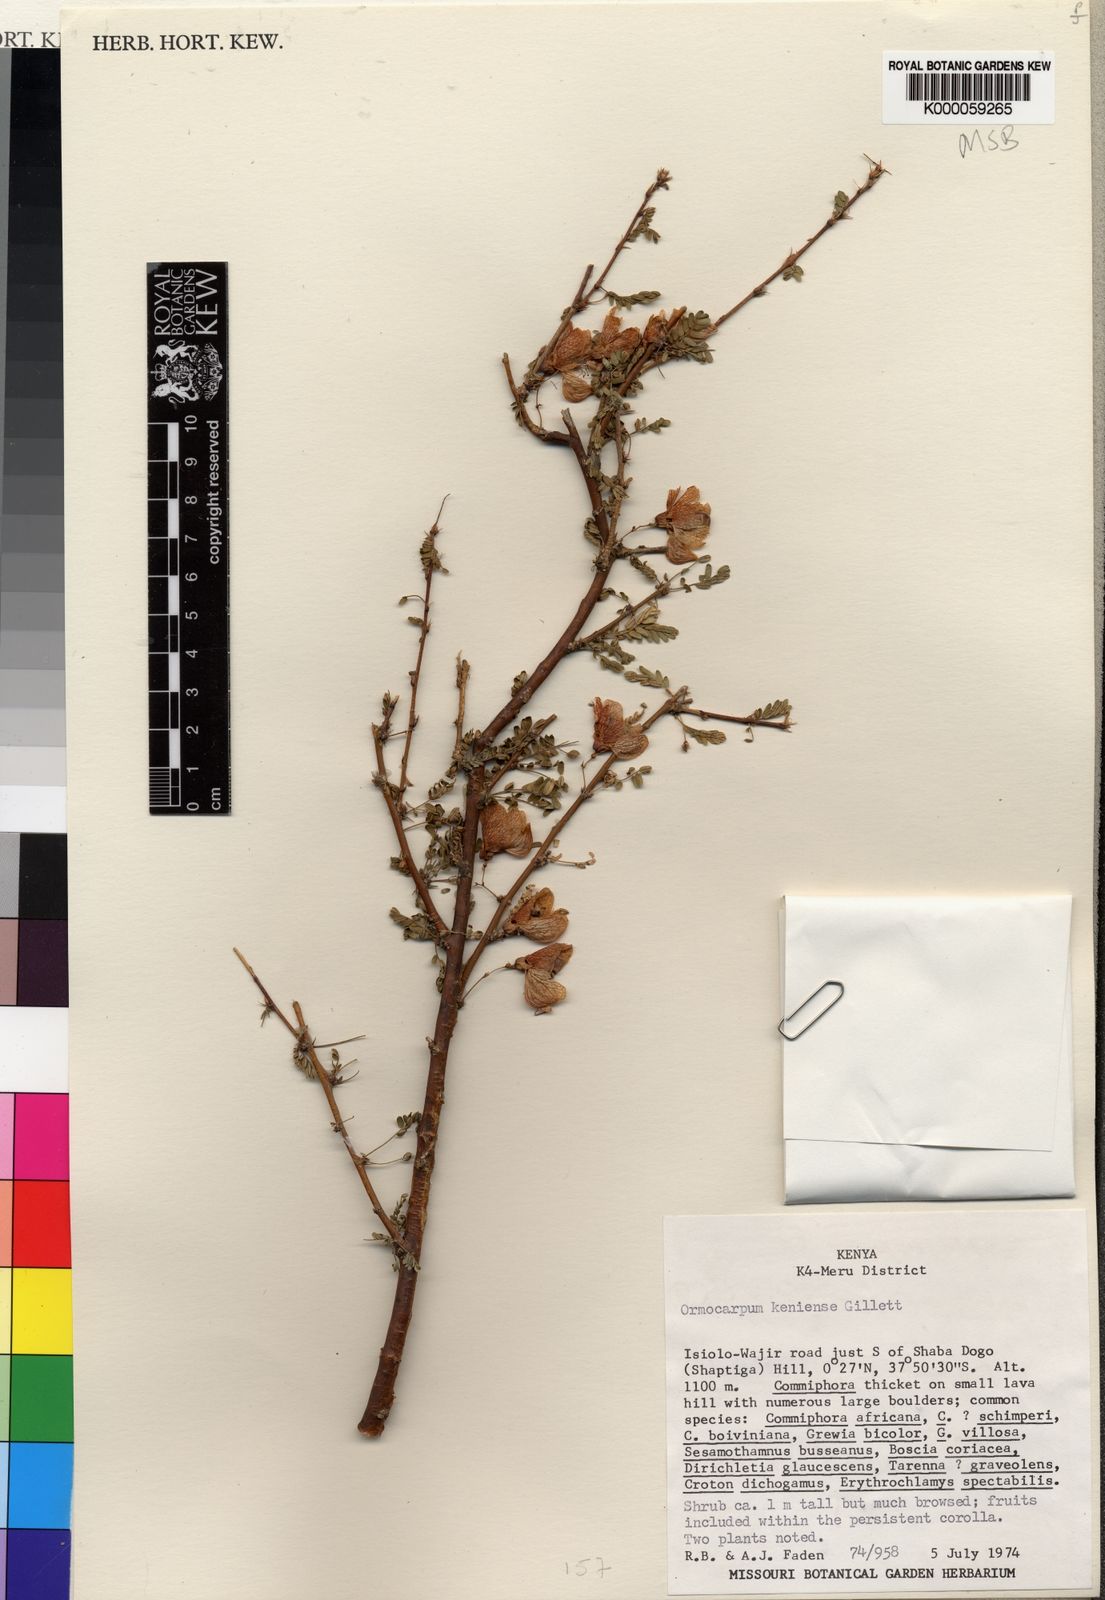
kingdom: Plantae
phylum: Tracheophyta
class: Magnoliopsida
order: Fabales
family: Fabaceae
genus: Ormocarpum
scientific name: Ormocarpum keniense
